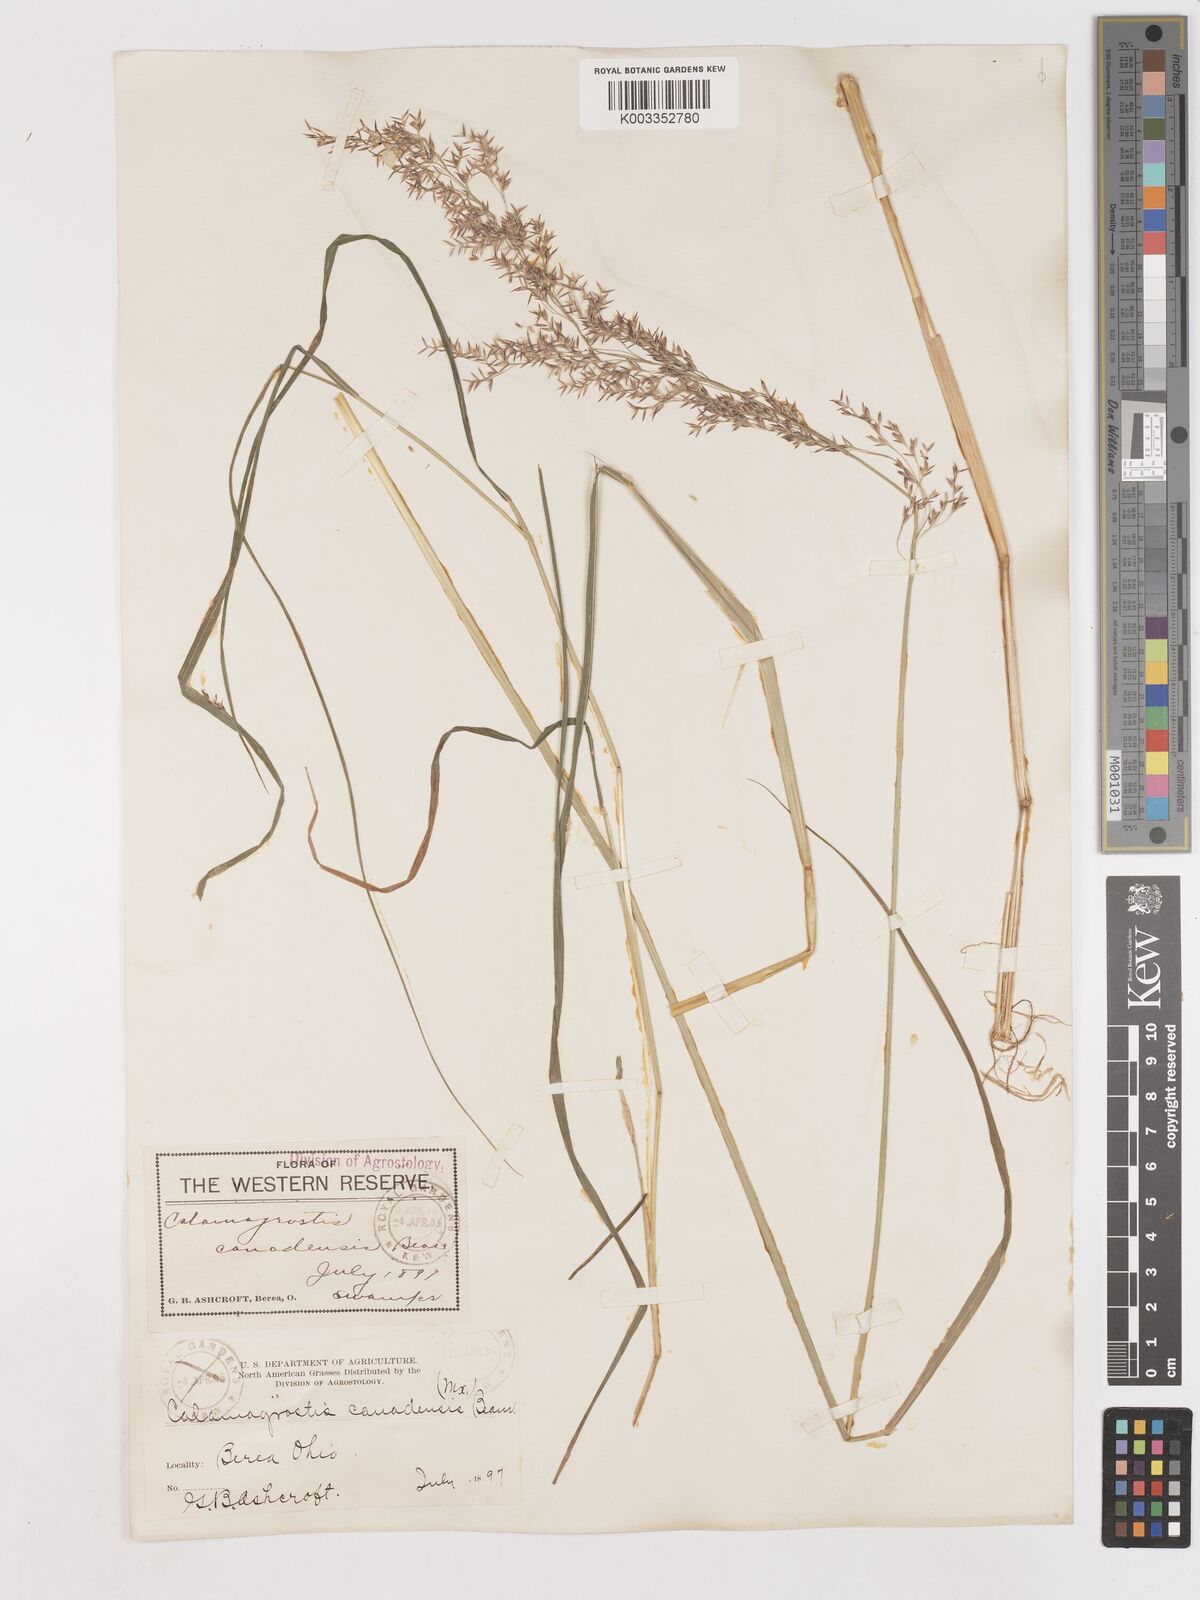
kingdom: Plantae
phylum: Tracheophyta
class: Liliopsida
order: Poales
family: Poaceae
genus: Calamagrostis
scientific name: Calamagrostis canadensis
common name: Canada bluejoint
